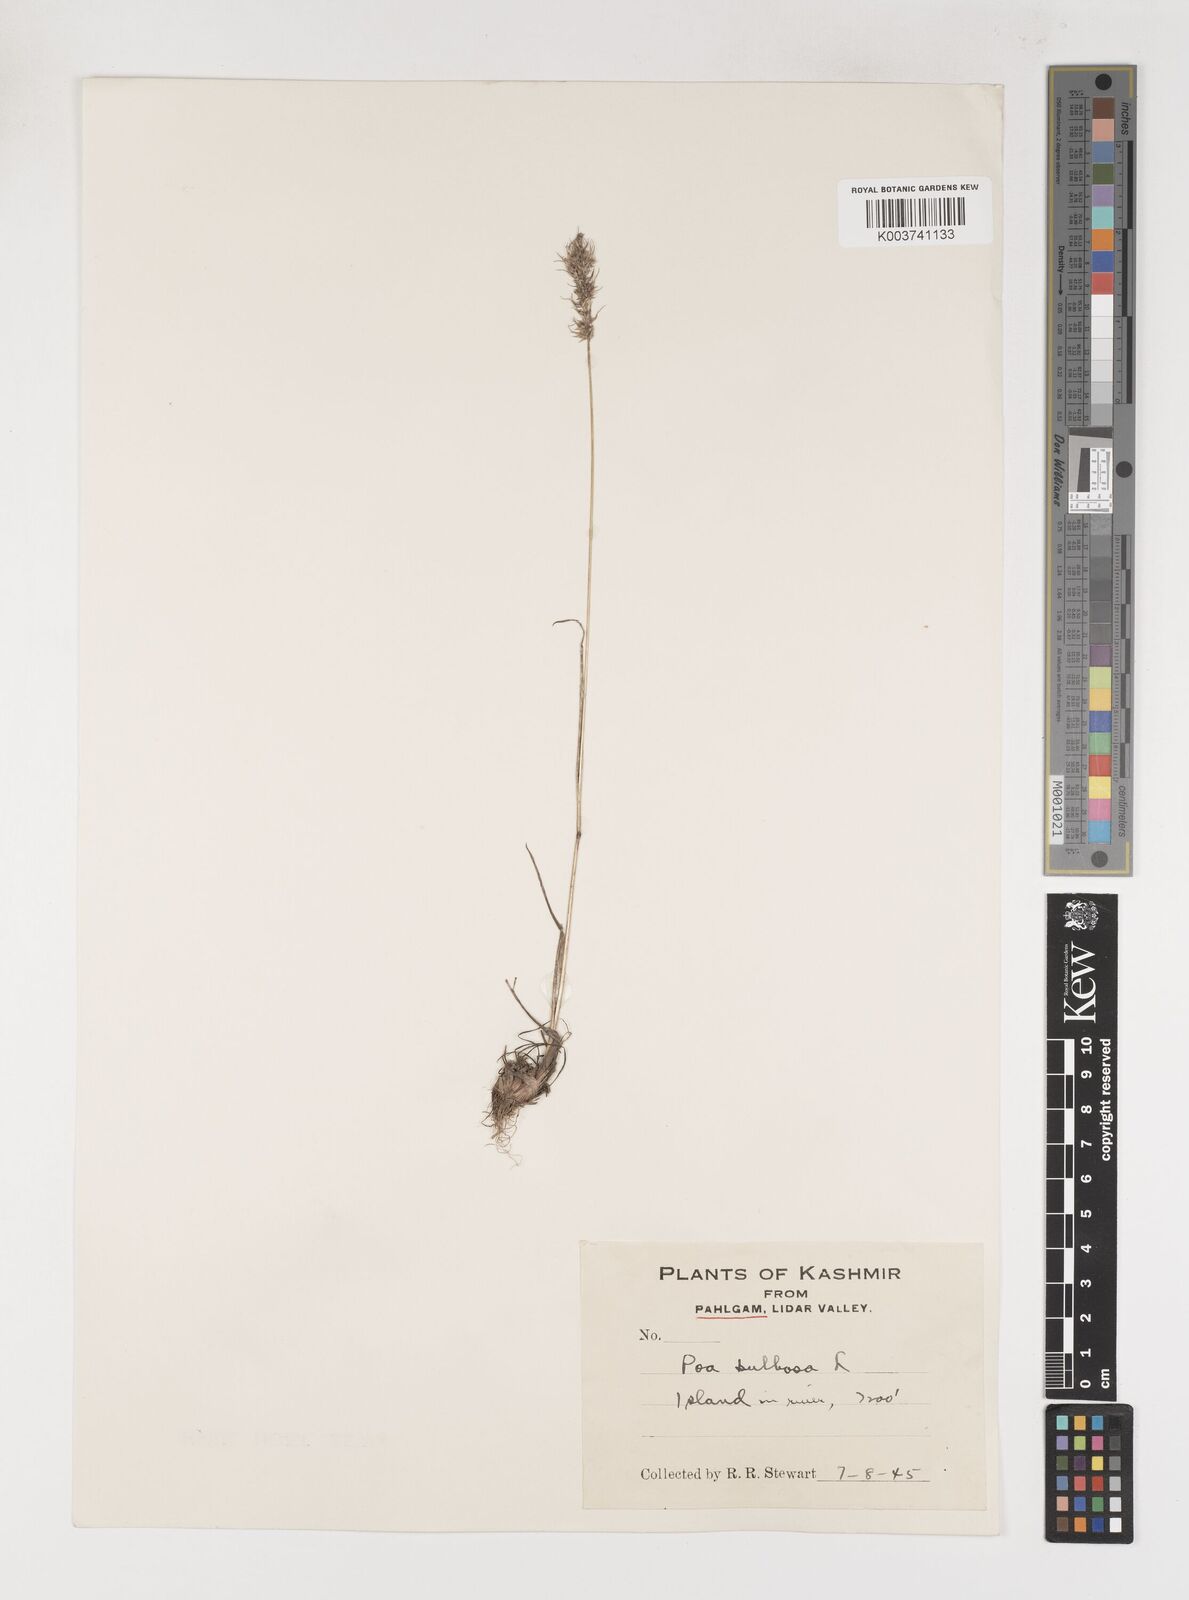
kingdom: Plantae
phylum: Tracheophyta
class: Liliopsida
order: Poales
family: Poaceae
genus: Poa
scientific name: Poa bulbosa
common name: Bulbous bluegrass
